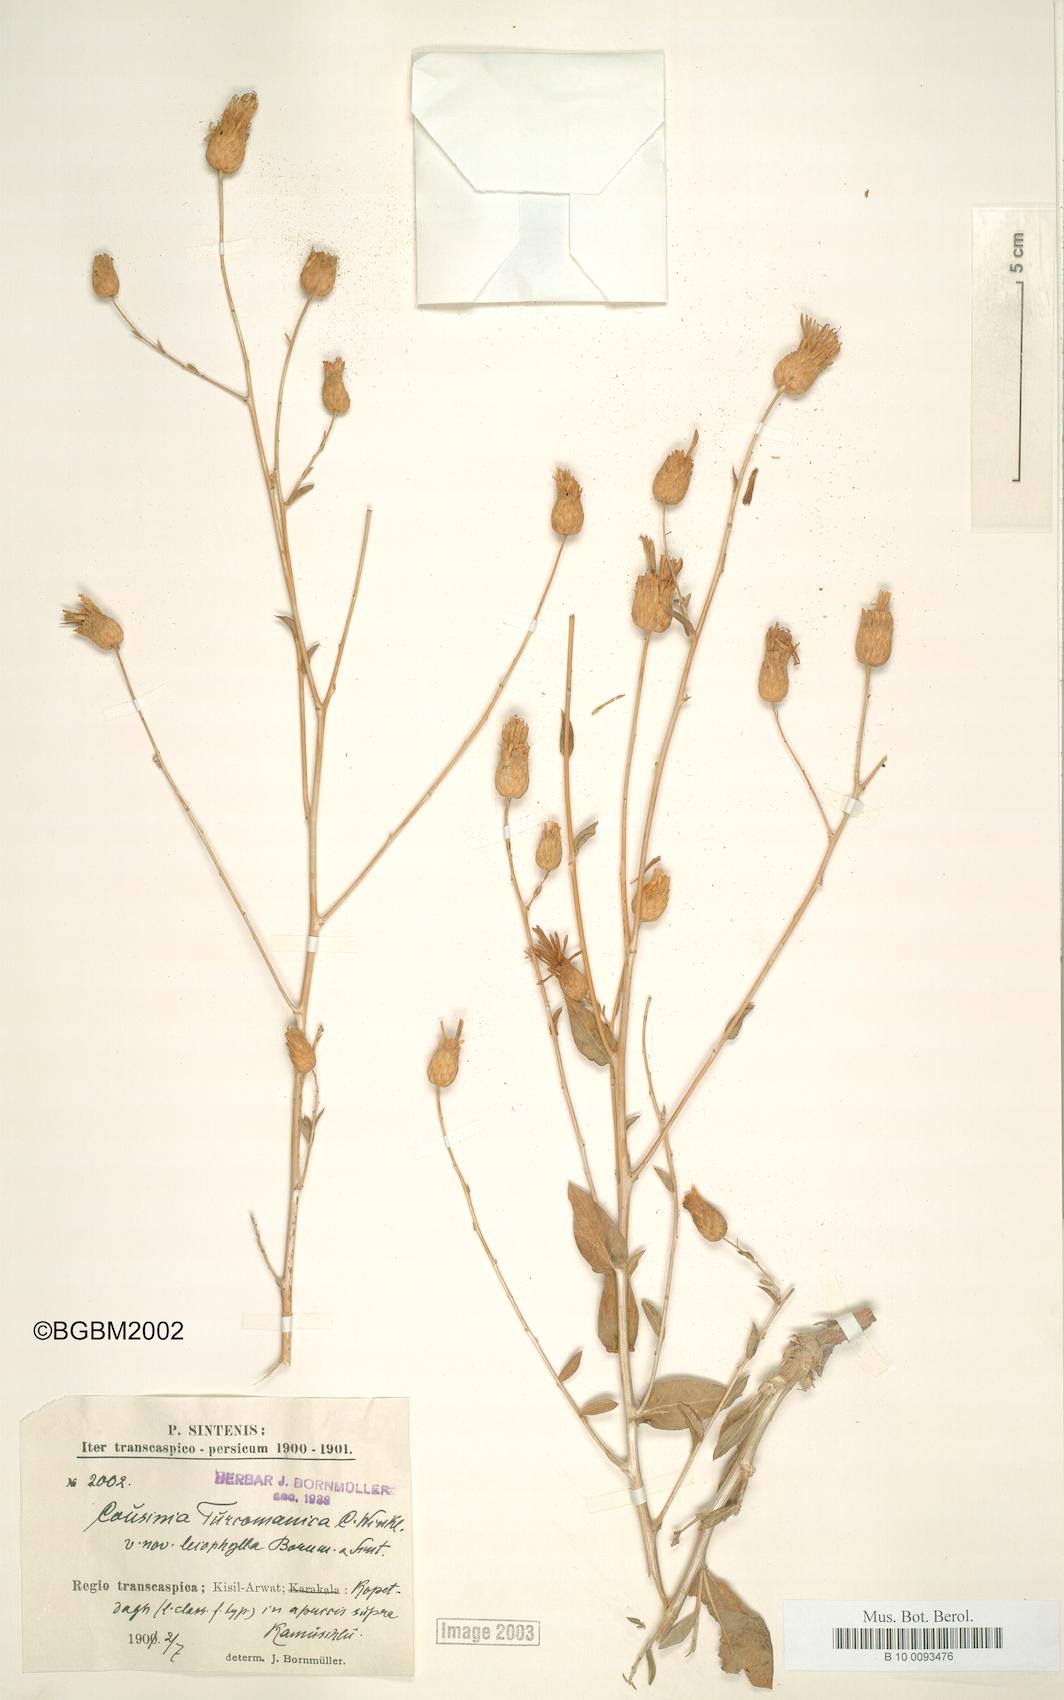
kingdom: Plantae
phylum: Tracheophyta
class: Magnoliopsida
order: Asterales
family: Asteraceae
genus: Cousinia
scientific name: Cousinia turcomanica
